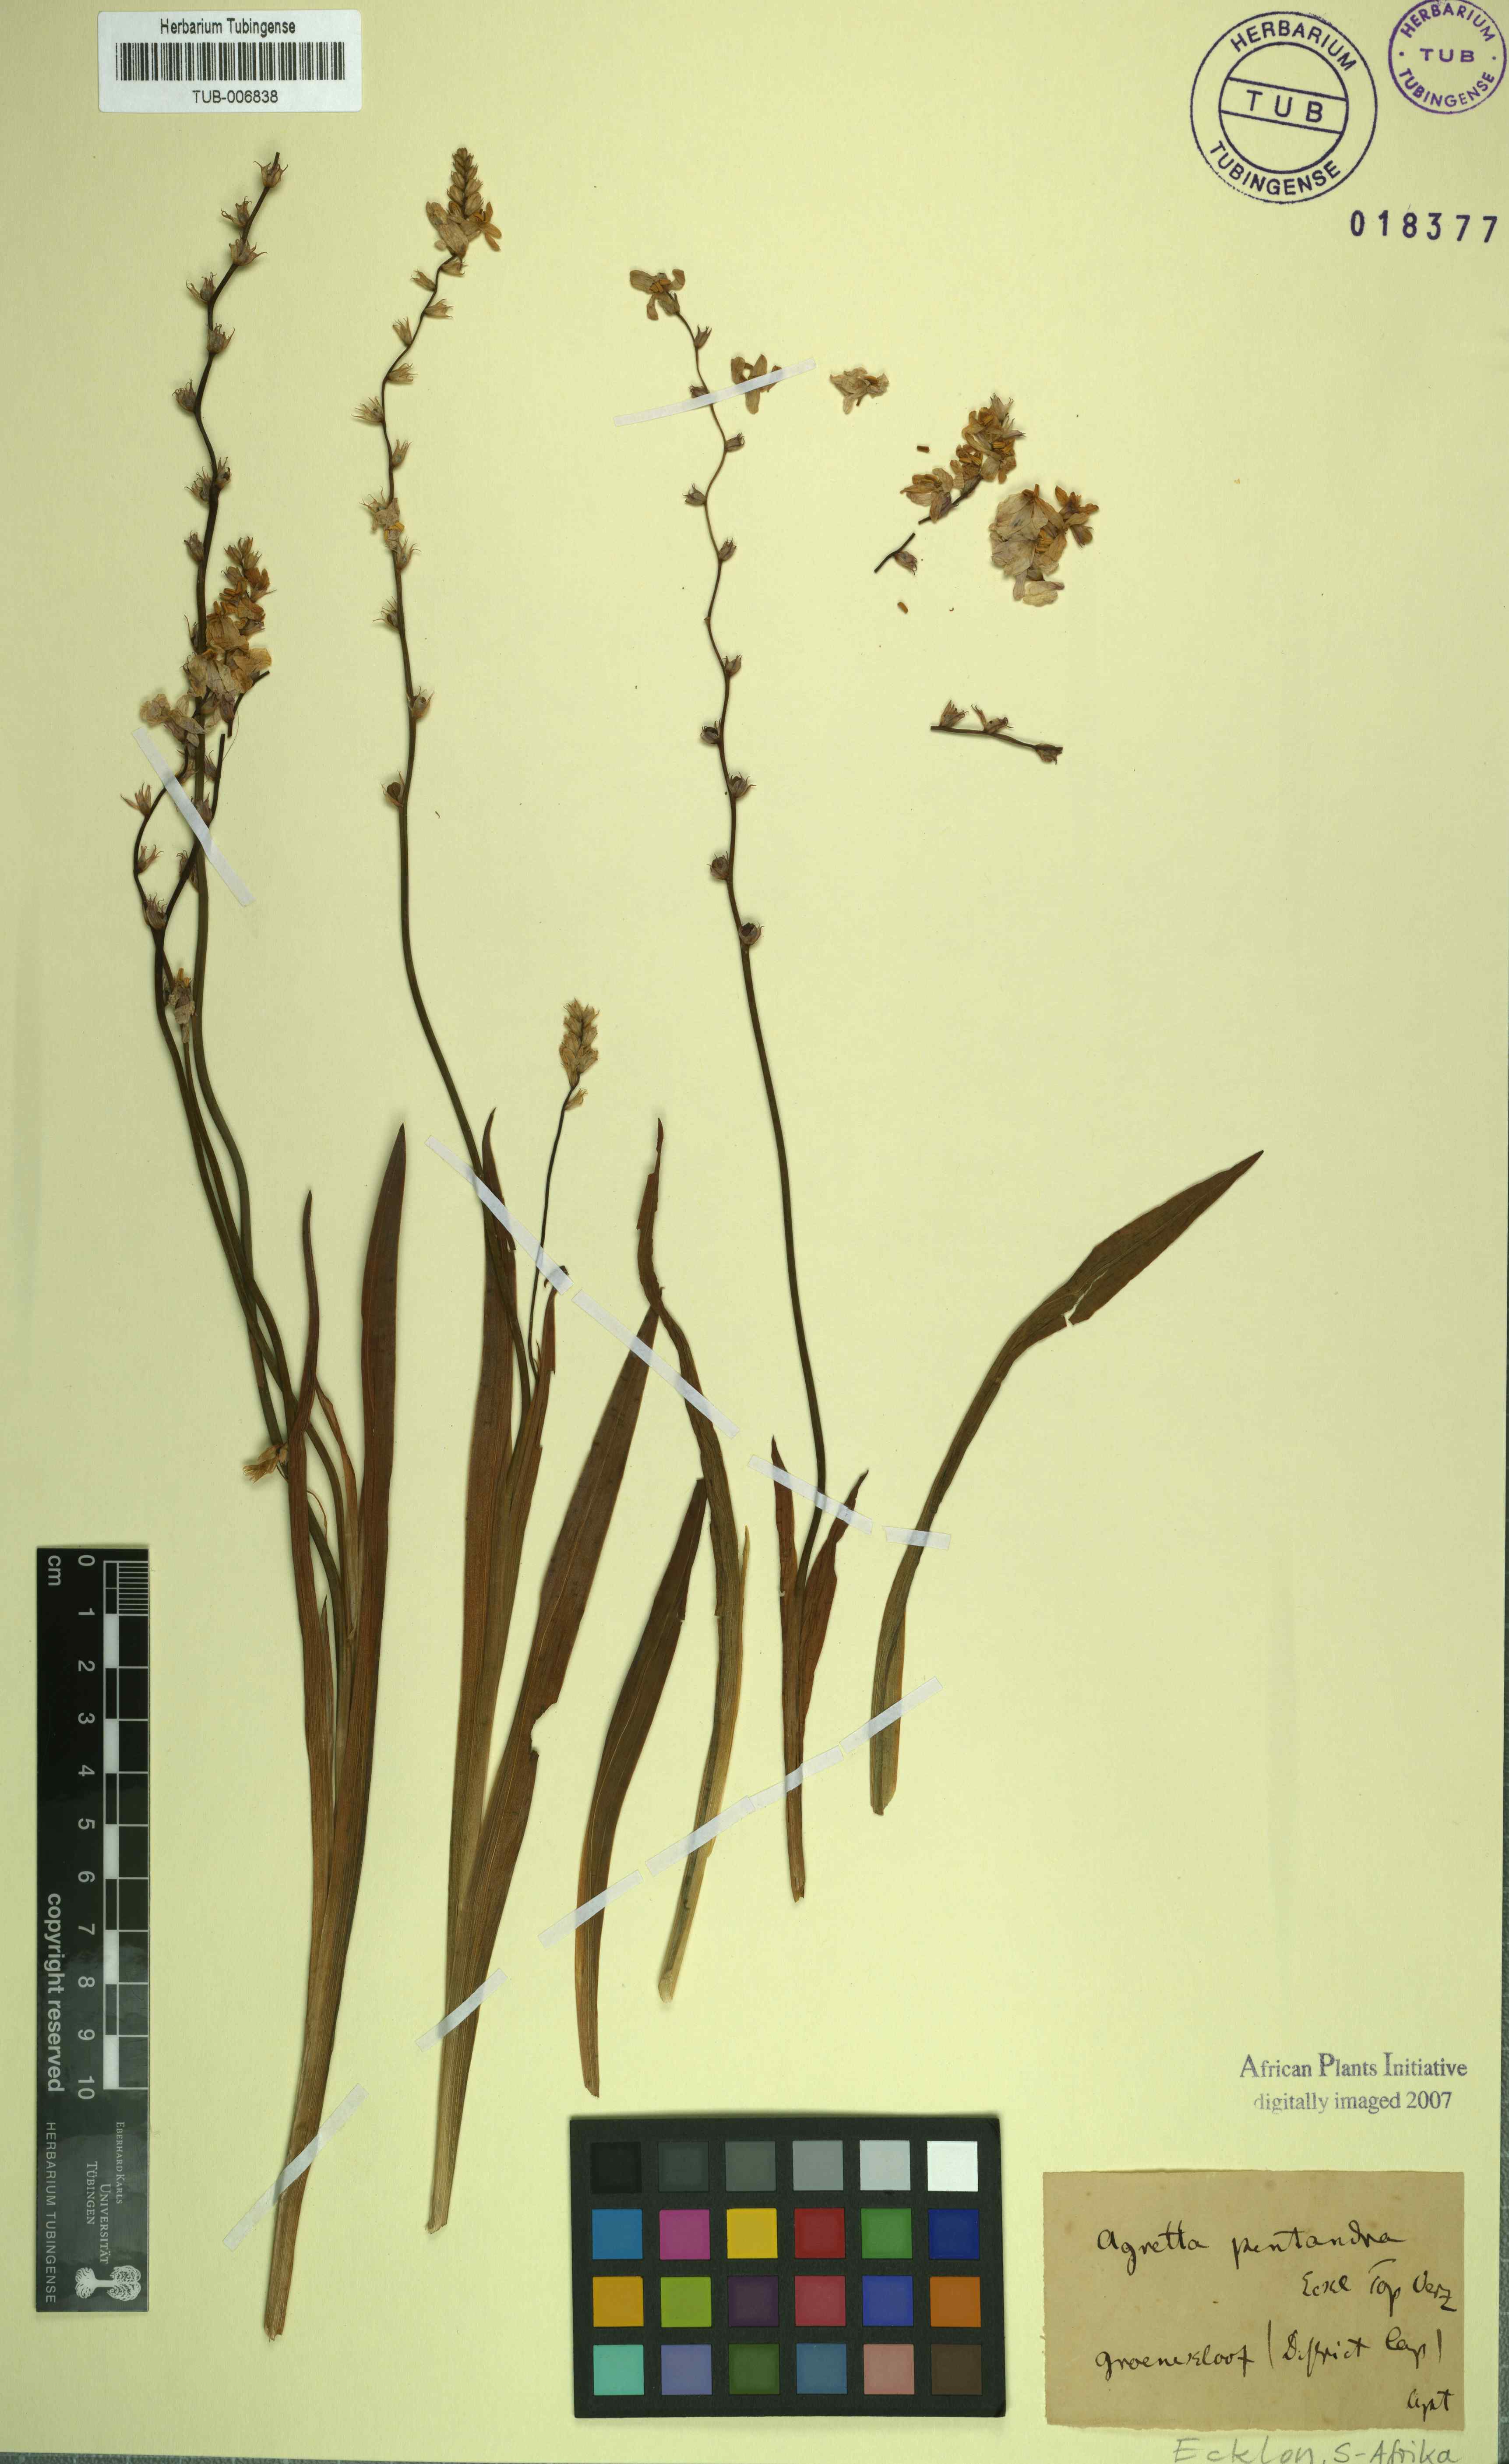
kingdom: Plantae
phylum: Tracheophyta
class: Liliopsida
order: Asparagales
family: Iridaceae
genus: Ixia
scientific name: Ixia scillaris
